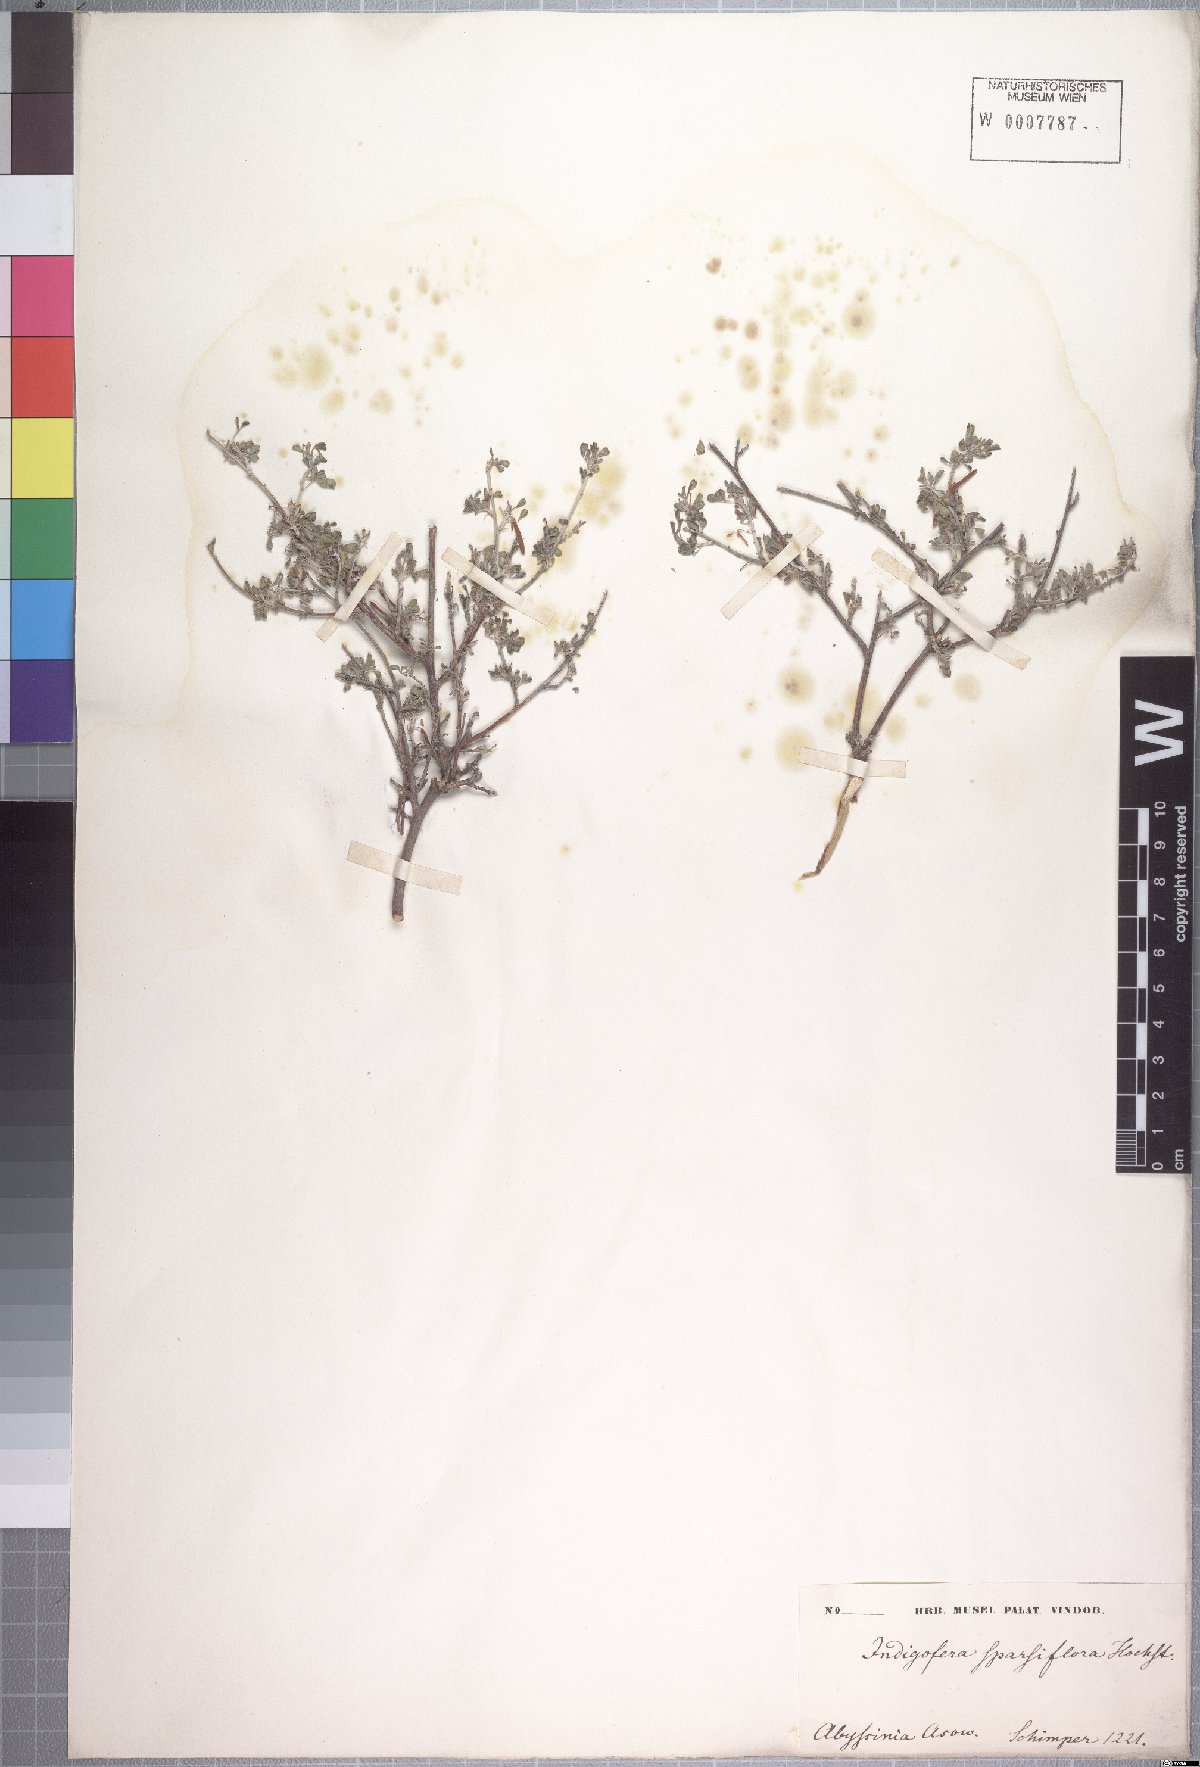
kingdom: Plantae
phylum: Tracheophyta
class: Magnoliopsida
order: Fabales
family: Fabaceae
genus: Indigofera
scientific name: Indigofera suaveolens
